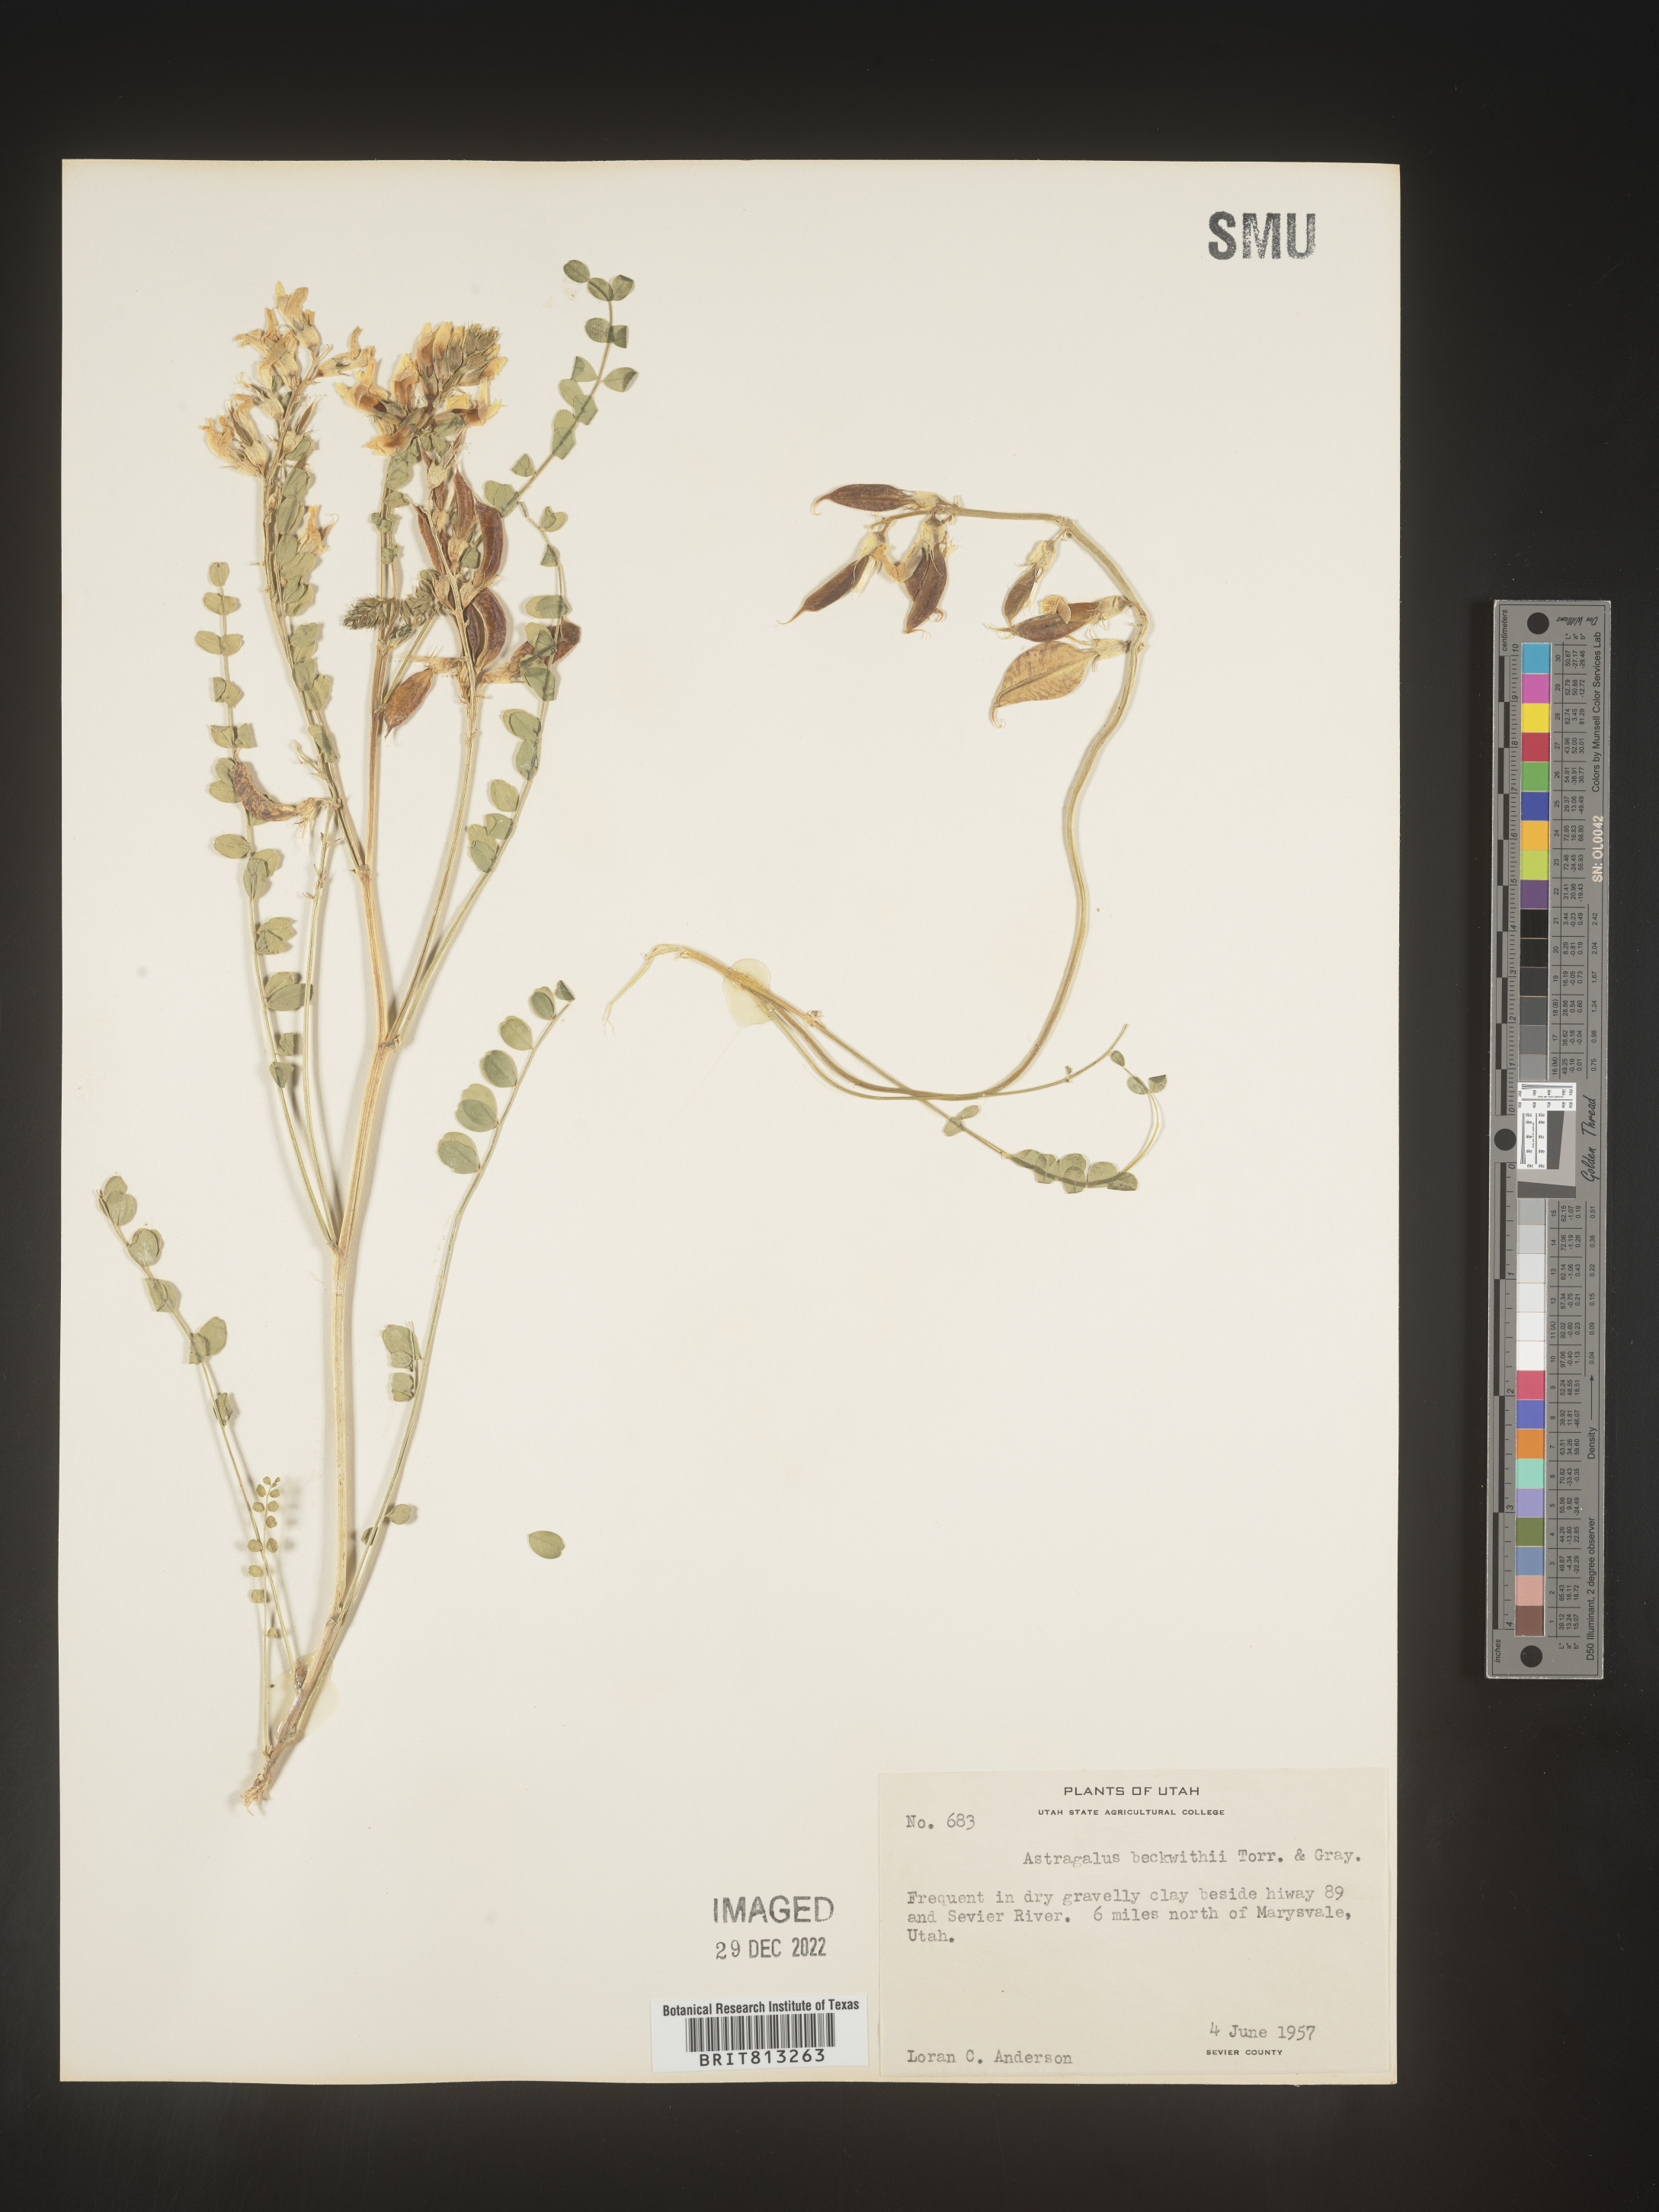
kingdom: Plantae
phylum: Tracheophyta
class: Magnoliopsida
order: Fabales
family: Fabaceae
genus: Astragalus
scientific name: Astragalus
